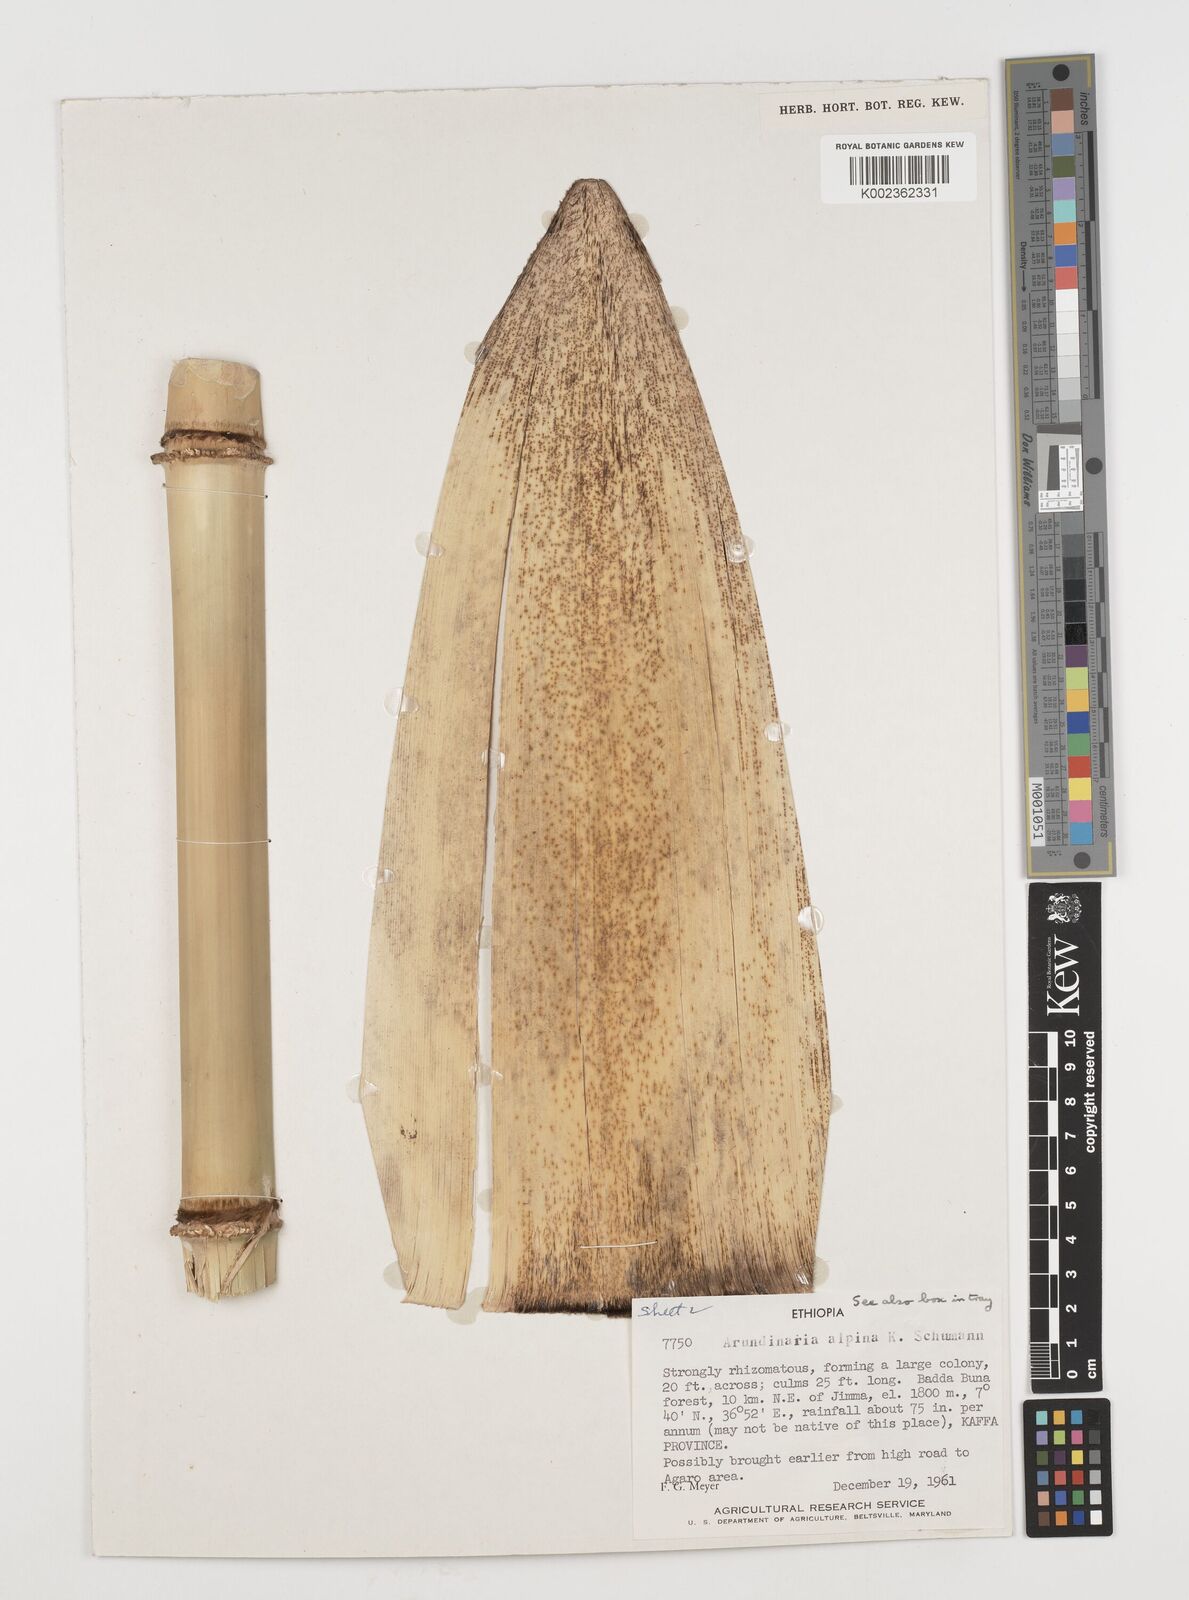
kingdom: Plantae
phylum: Tracheophyta
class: Liliopsida
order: Poales
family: Poaceae
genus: Oldeania
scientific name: Oldeania alpina
